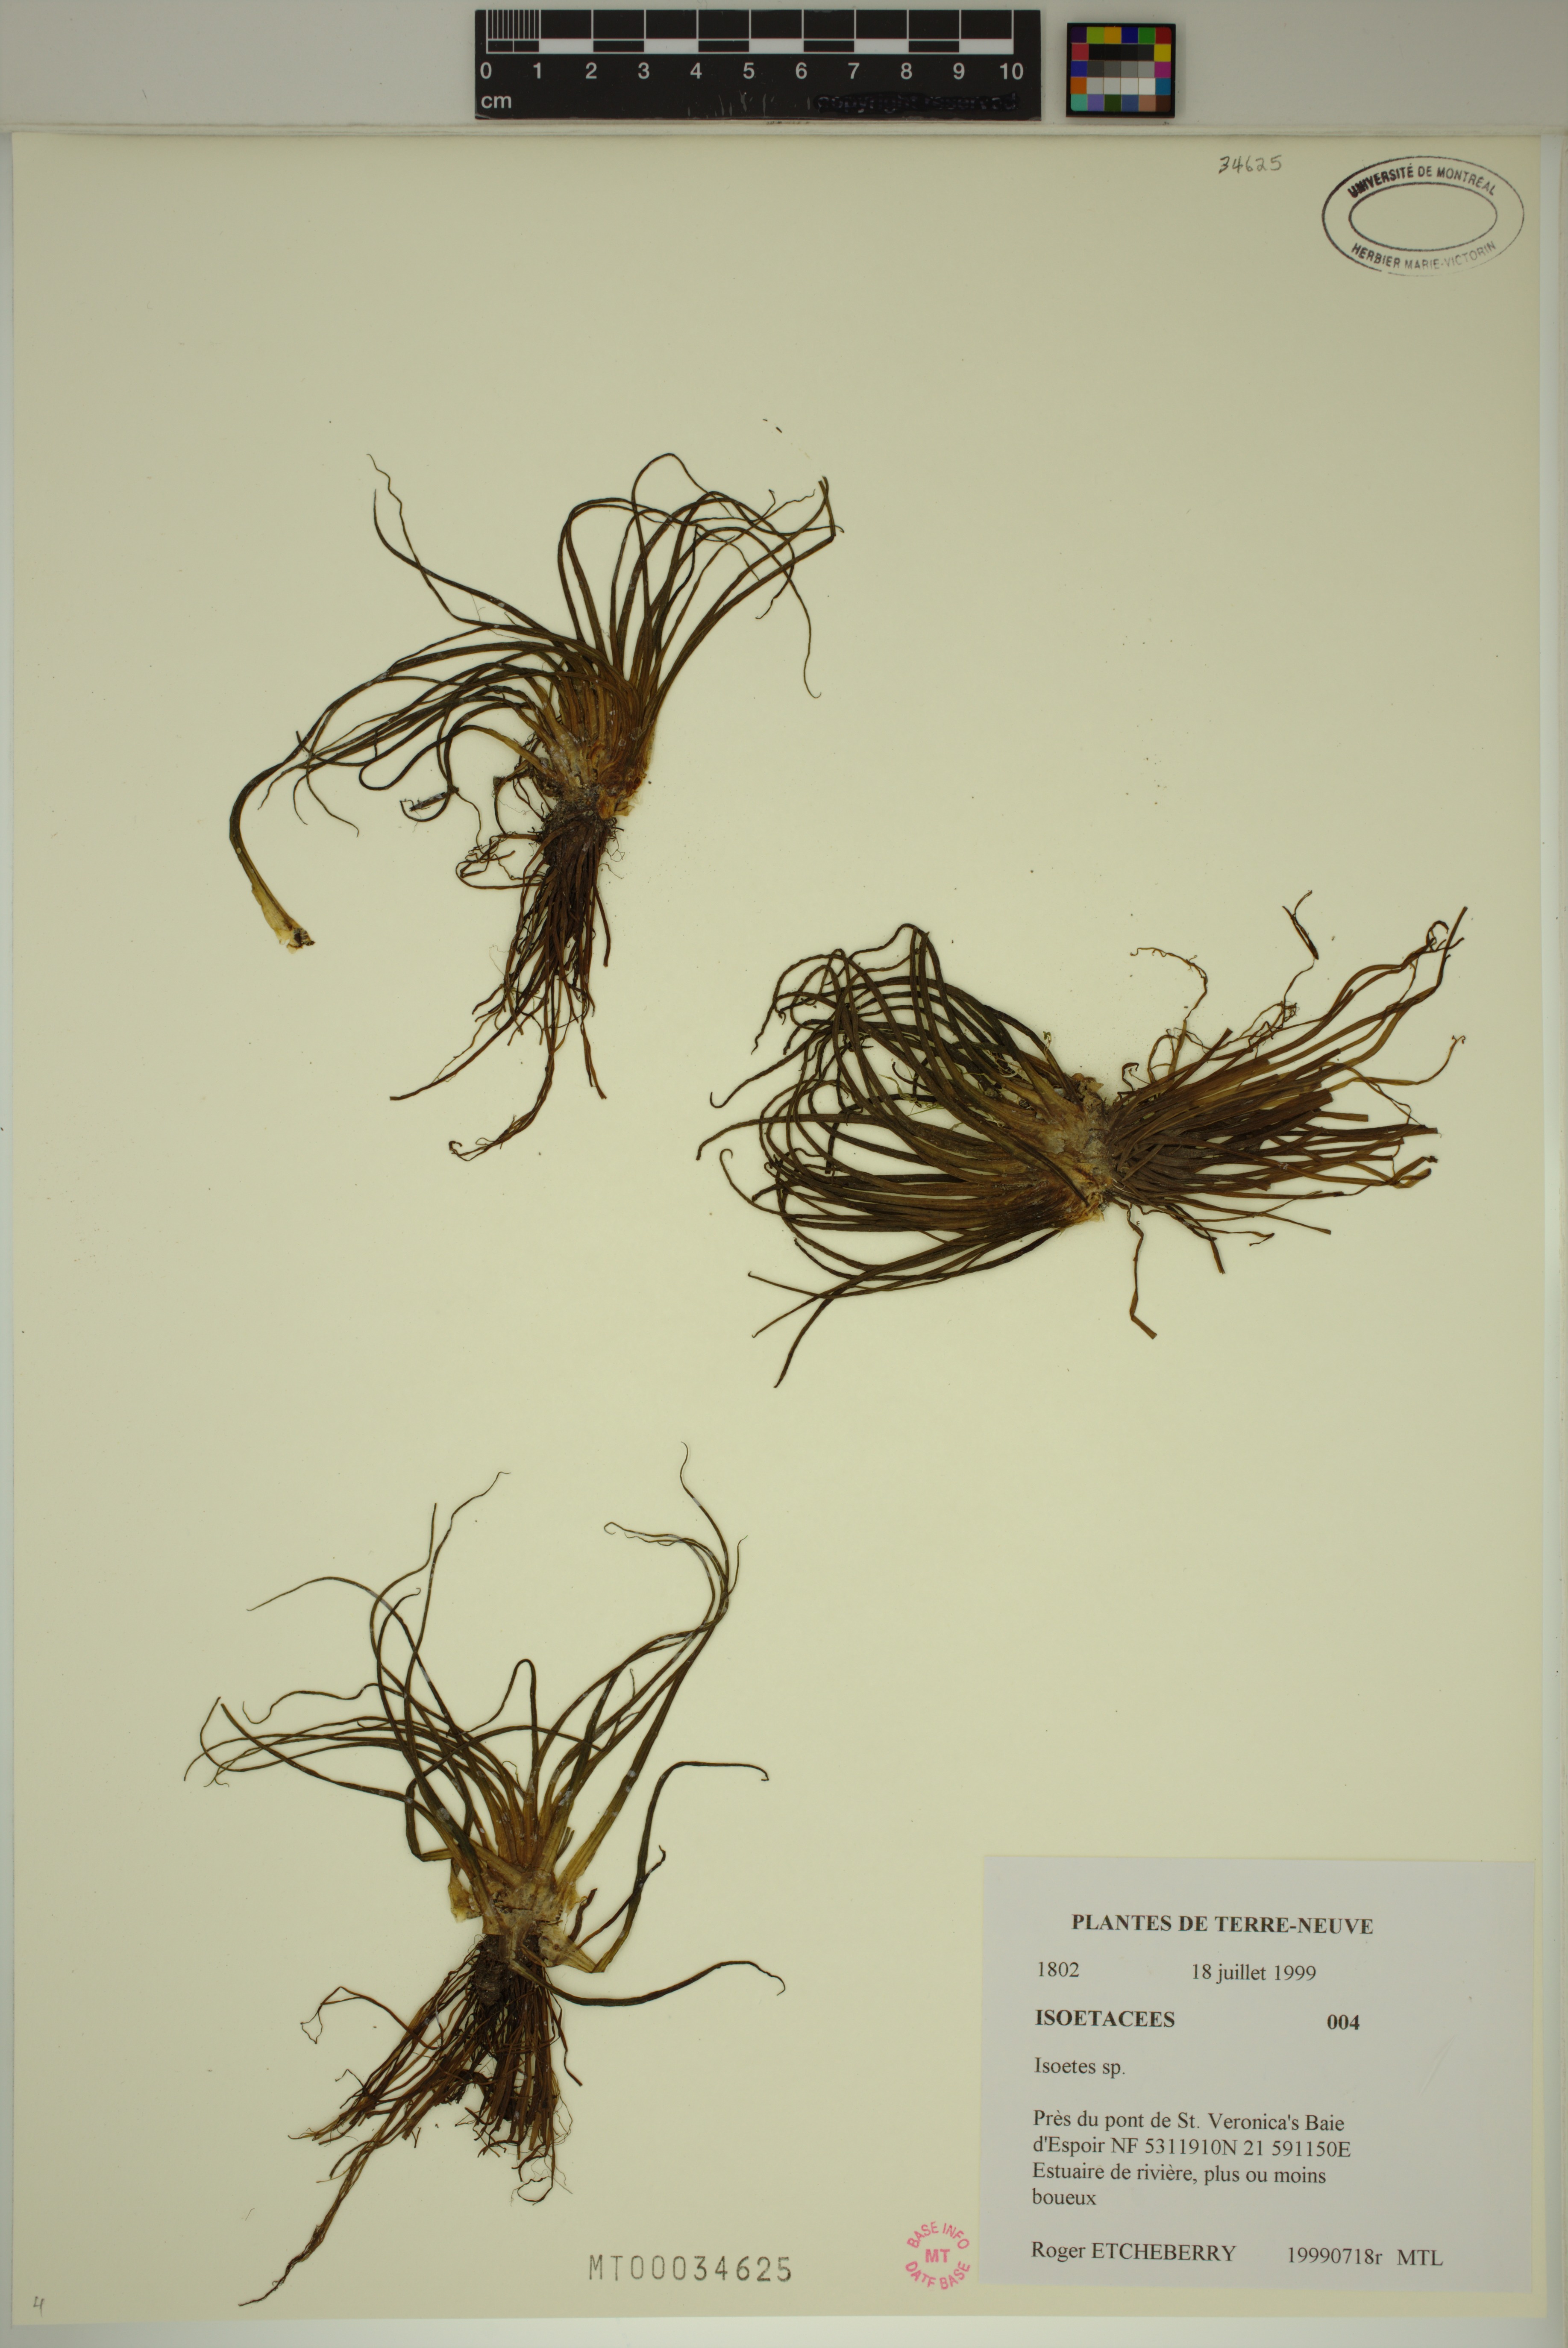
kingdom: Plantae
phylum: Tracheophyta
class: Lycopodiopsida
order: Isoetales
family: Isoetaceae
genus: Isoetes
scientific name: Isoetes tuckermanii
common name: Tuckerman's quillwort
